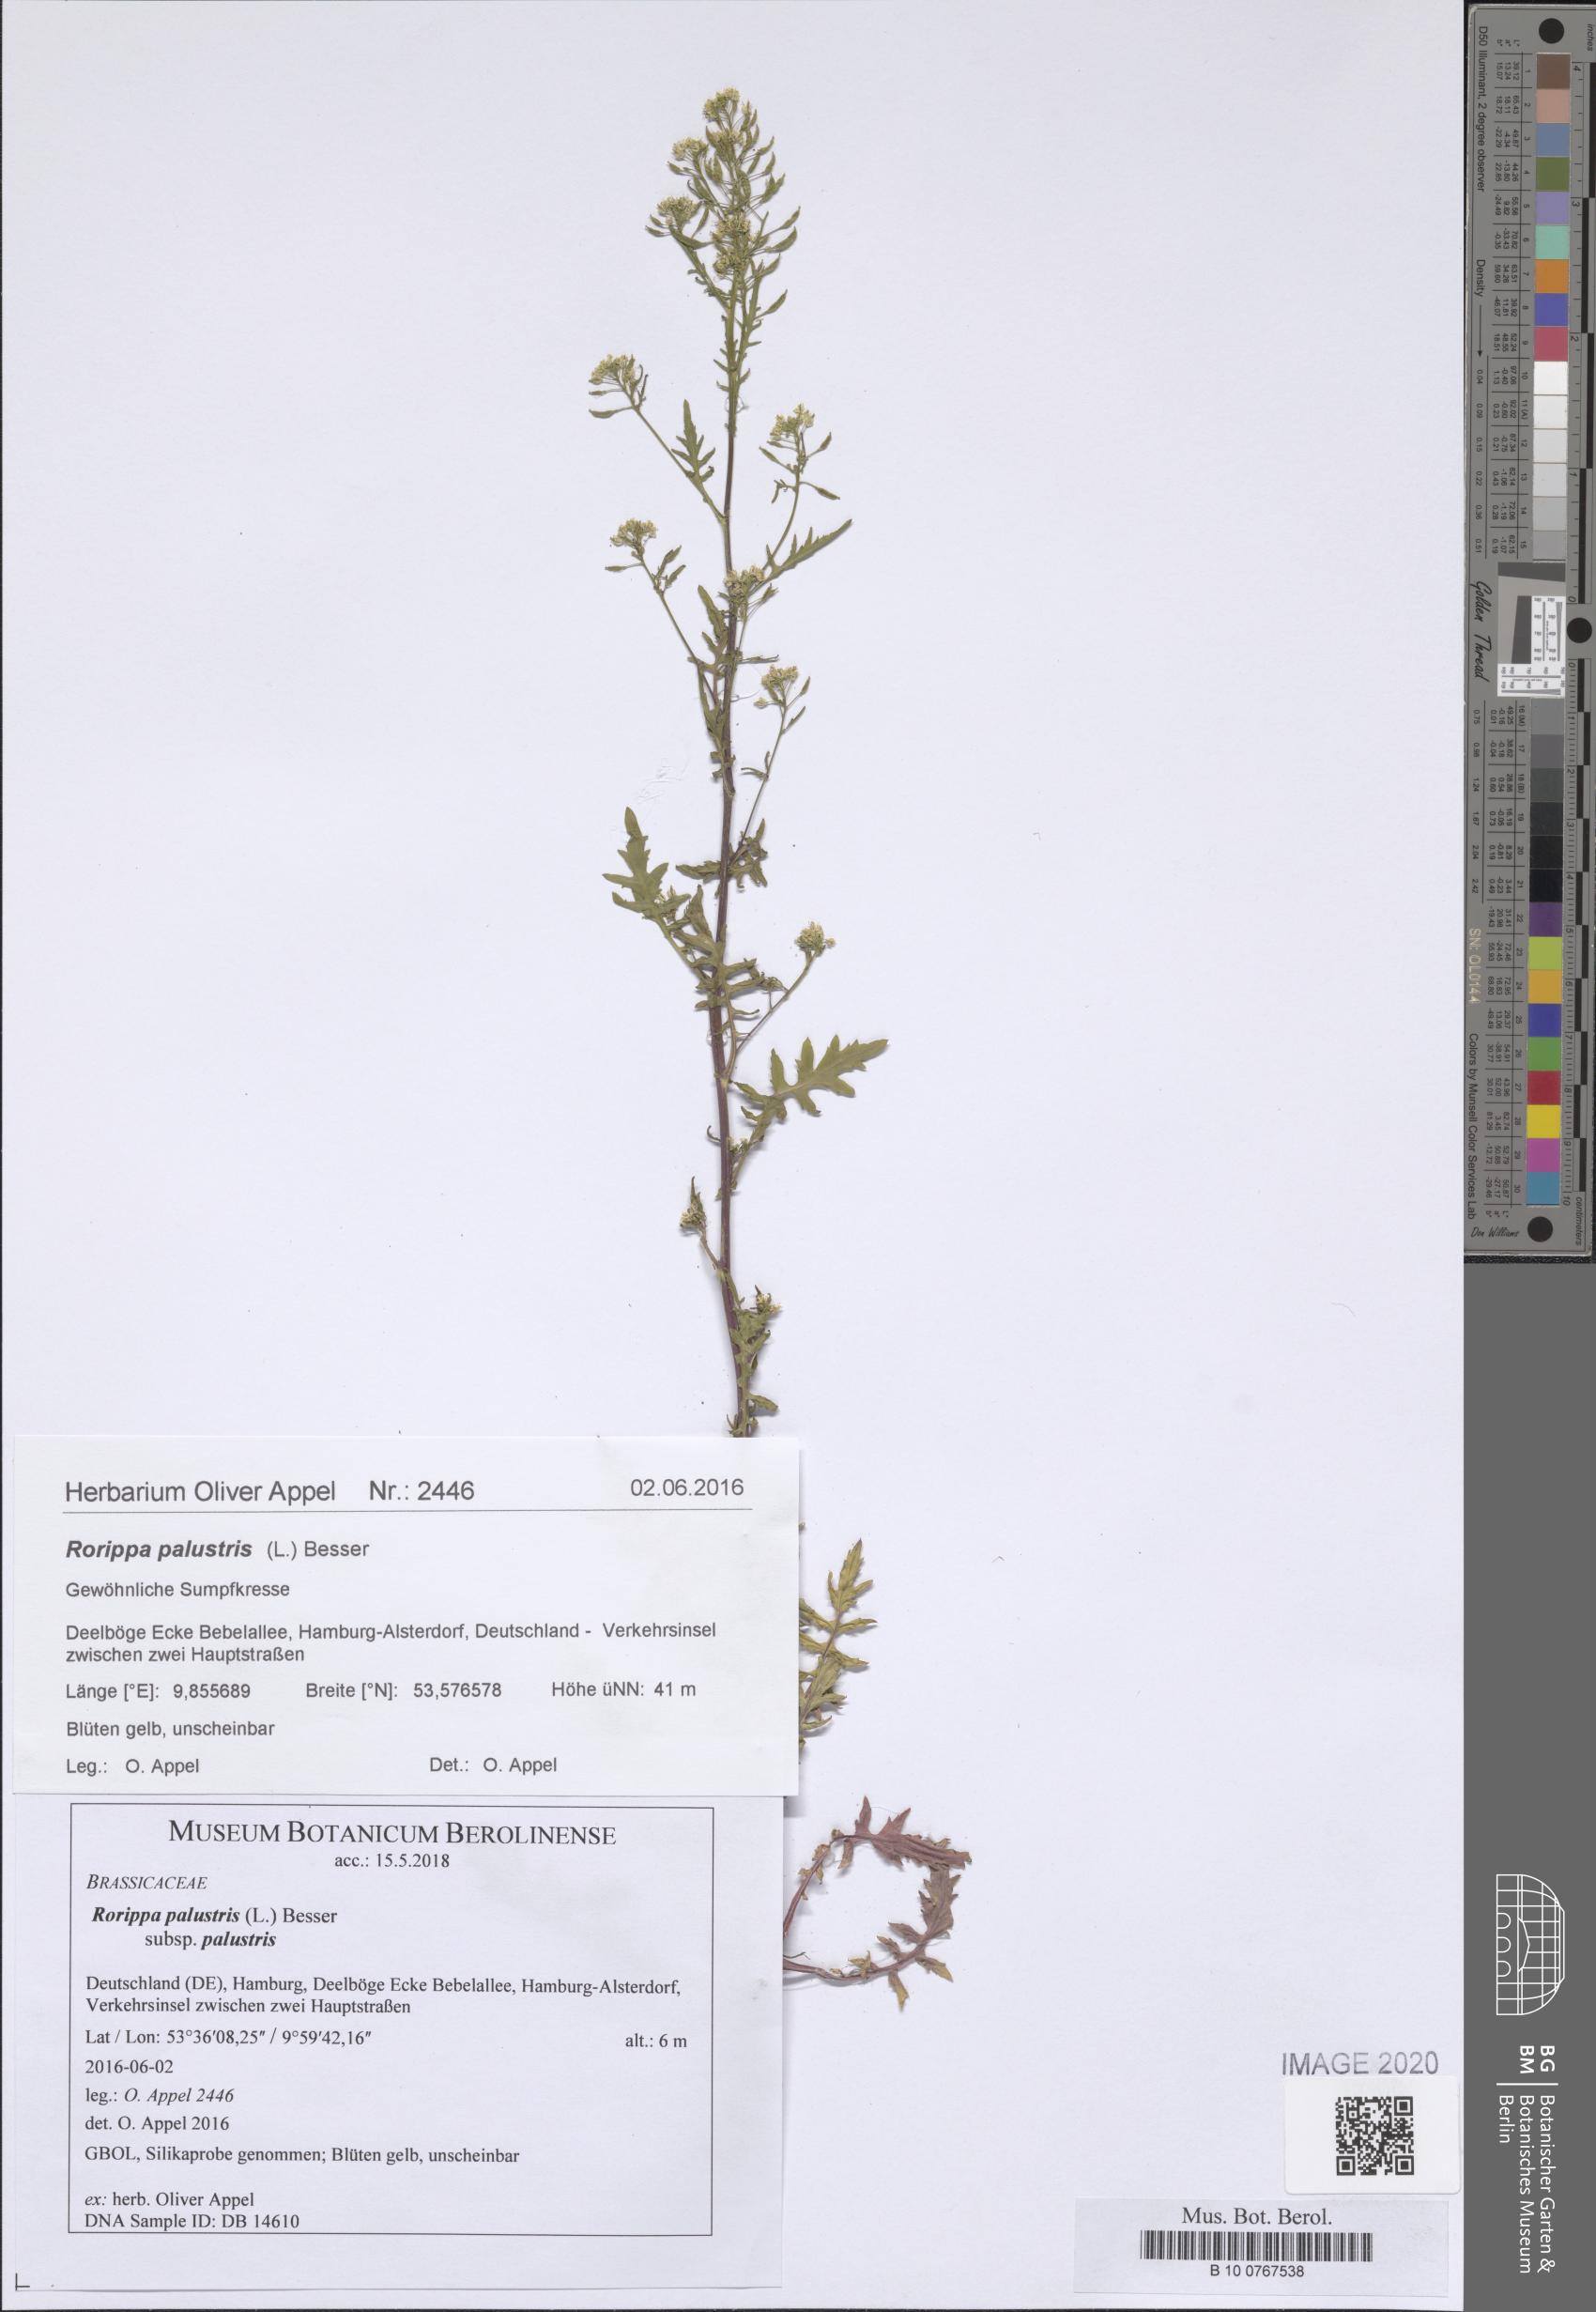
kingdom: Plantae
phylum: Tracheophyta
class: Magnoliopsida
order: Brassicales
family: Brassicaceae
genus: Rorippa
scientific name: Rorippa palustris
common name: Marsh yellow-cress
